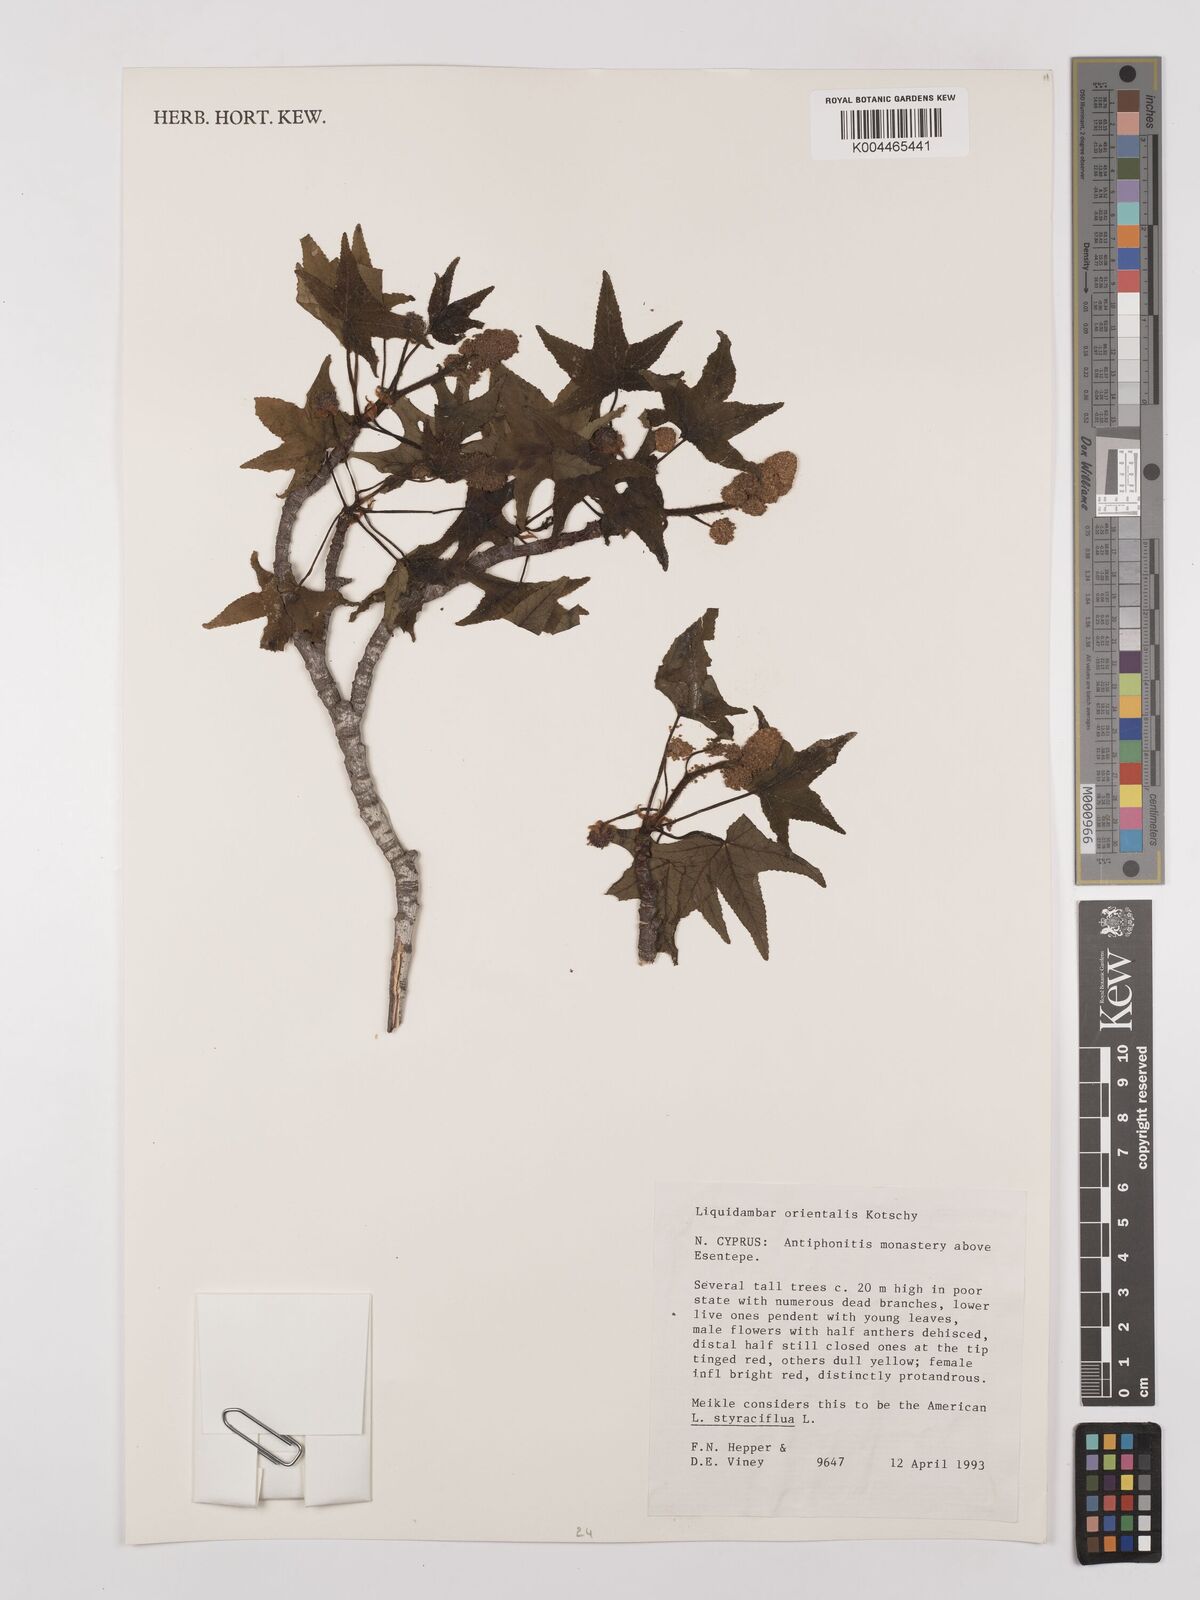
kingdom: Plantae
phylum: Tracheophyta
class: Magnoliopsida
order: Saxifragales
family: Altingiaceae
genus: Liquidambar
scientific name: Liquidambar orientalis
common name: Oriental sweetgum
